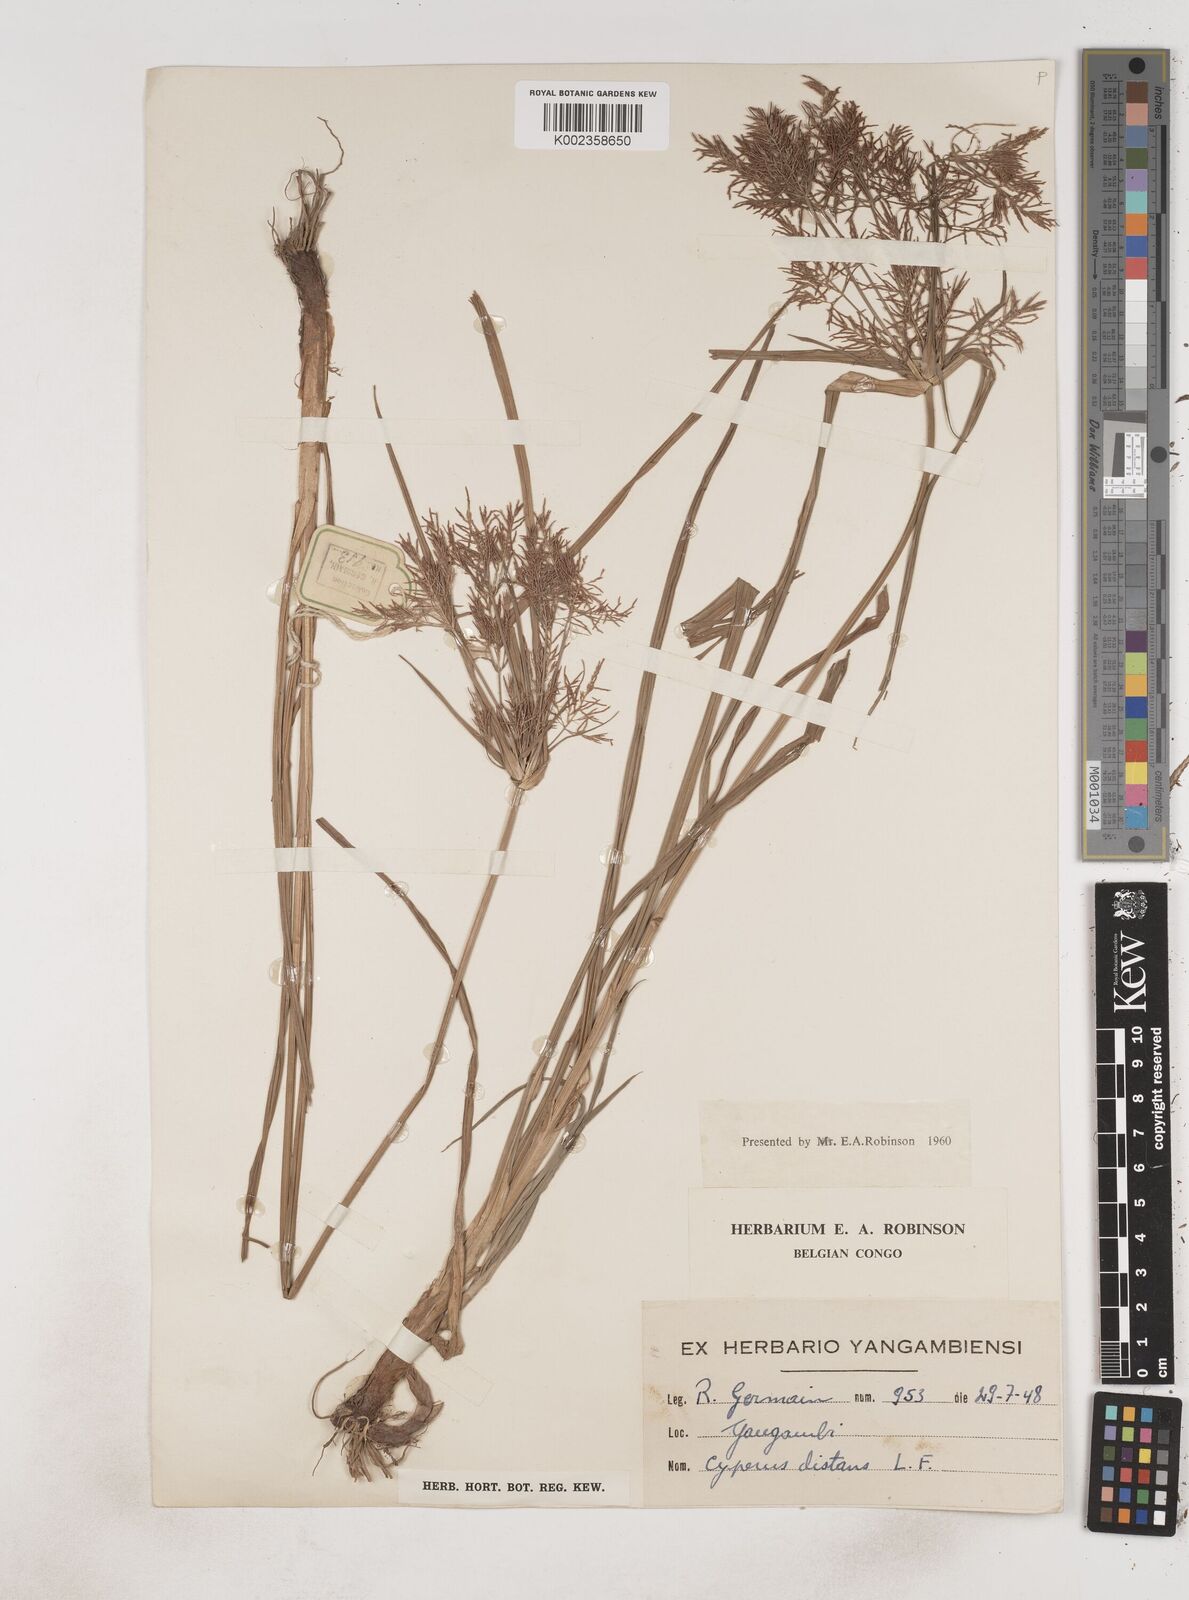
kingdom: Plantae
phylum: Tracheophyta
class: Liliopsida
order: Poales
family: Cyperaceae
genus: Cyperus
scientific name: Cyperus distans
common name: Slender cyperus
